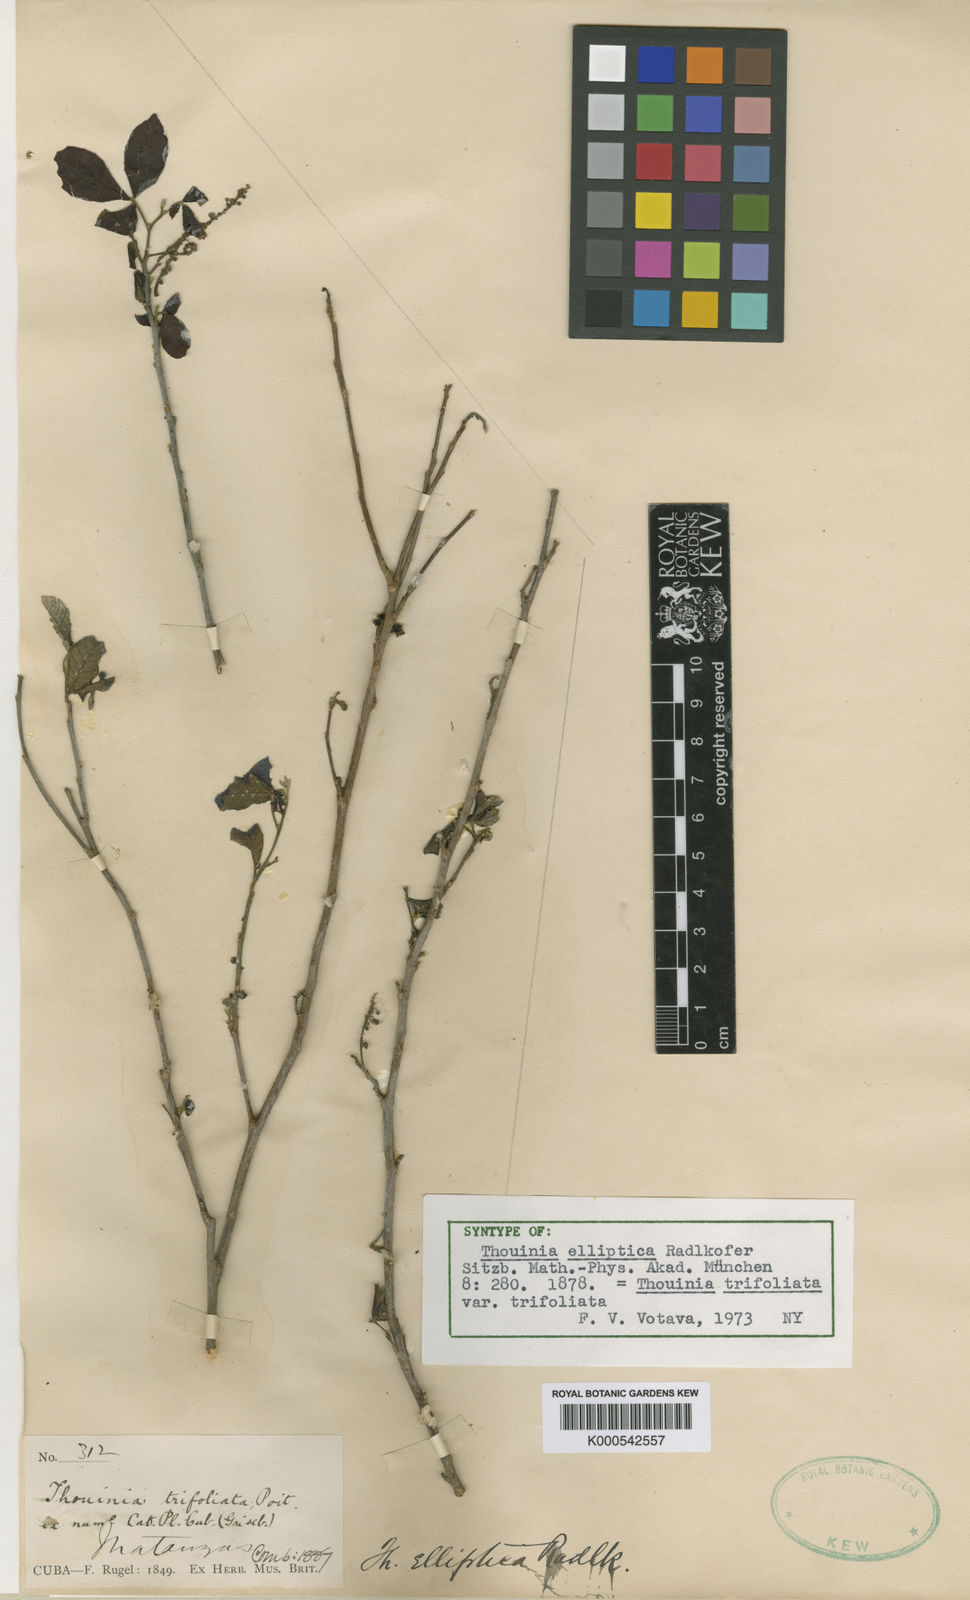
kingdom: Plantae
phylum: Tracheophyta
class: Magnoliopsida
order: Sapindales
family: Sapindaceae
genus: Thouinia
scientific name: Thouinia trifoliata
